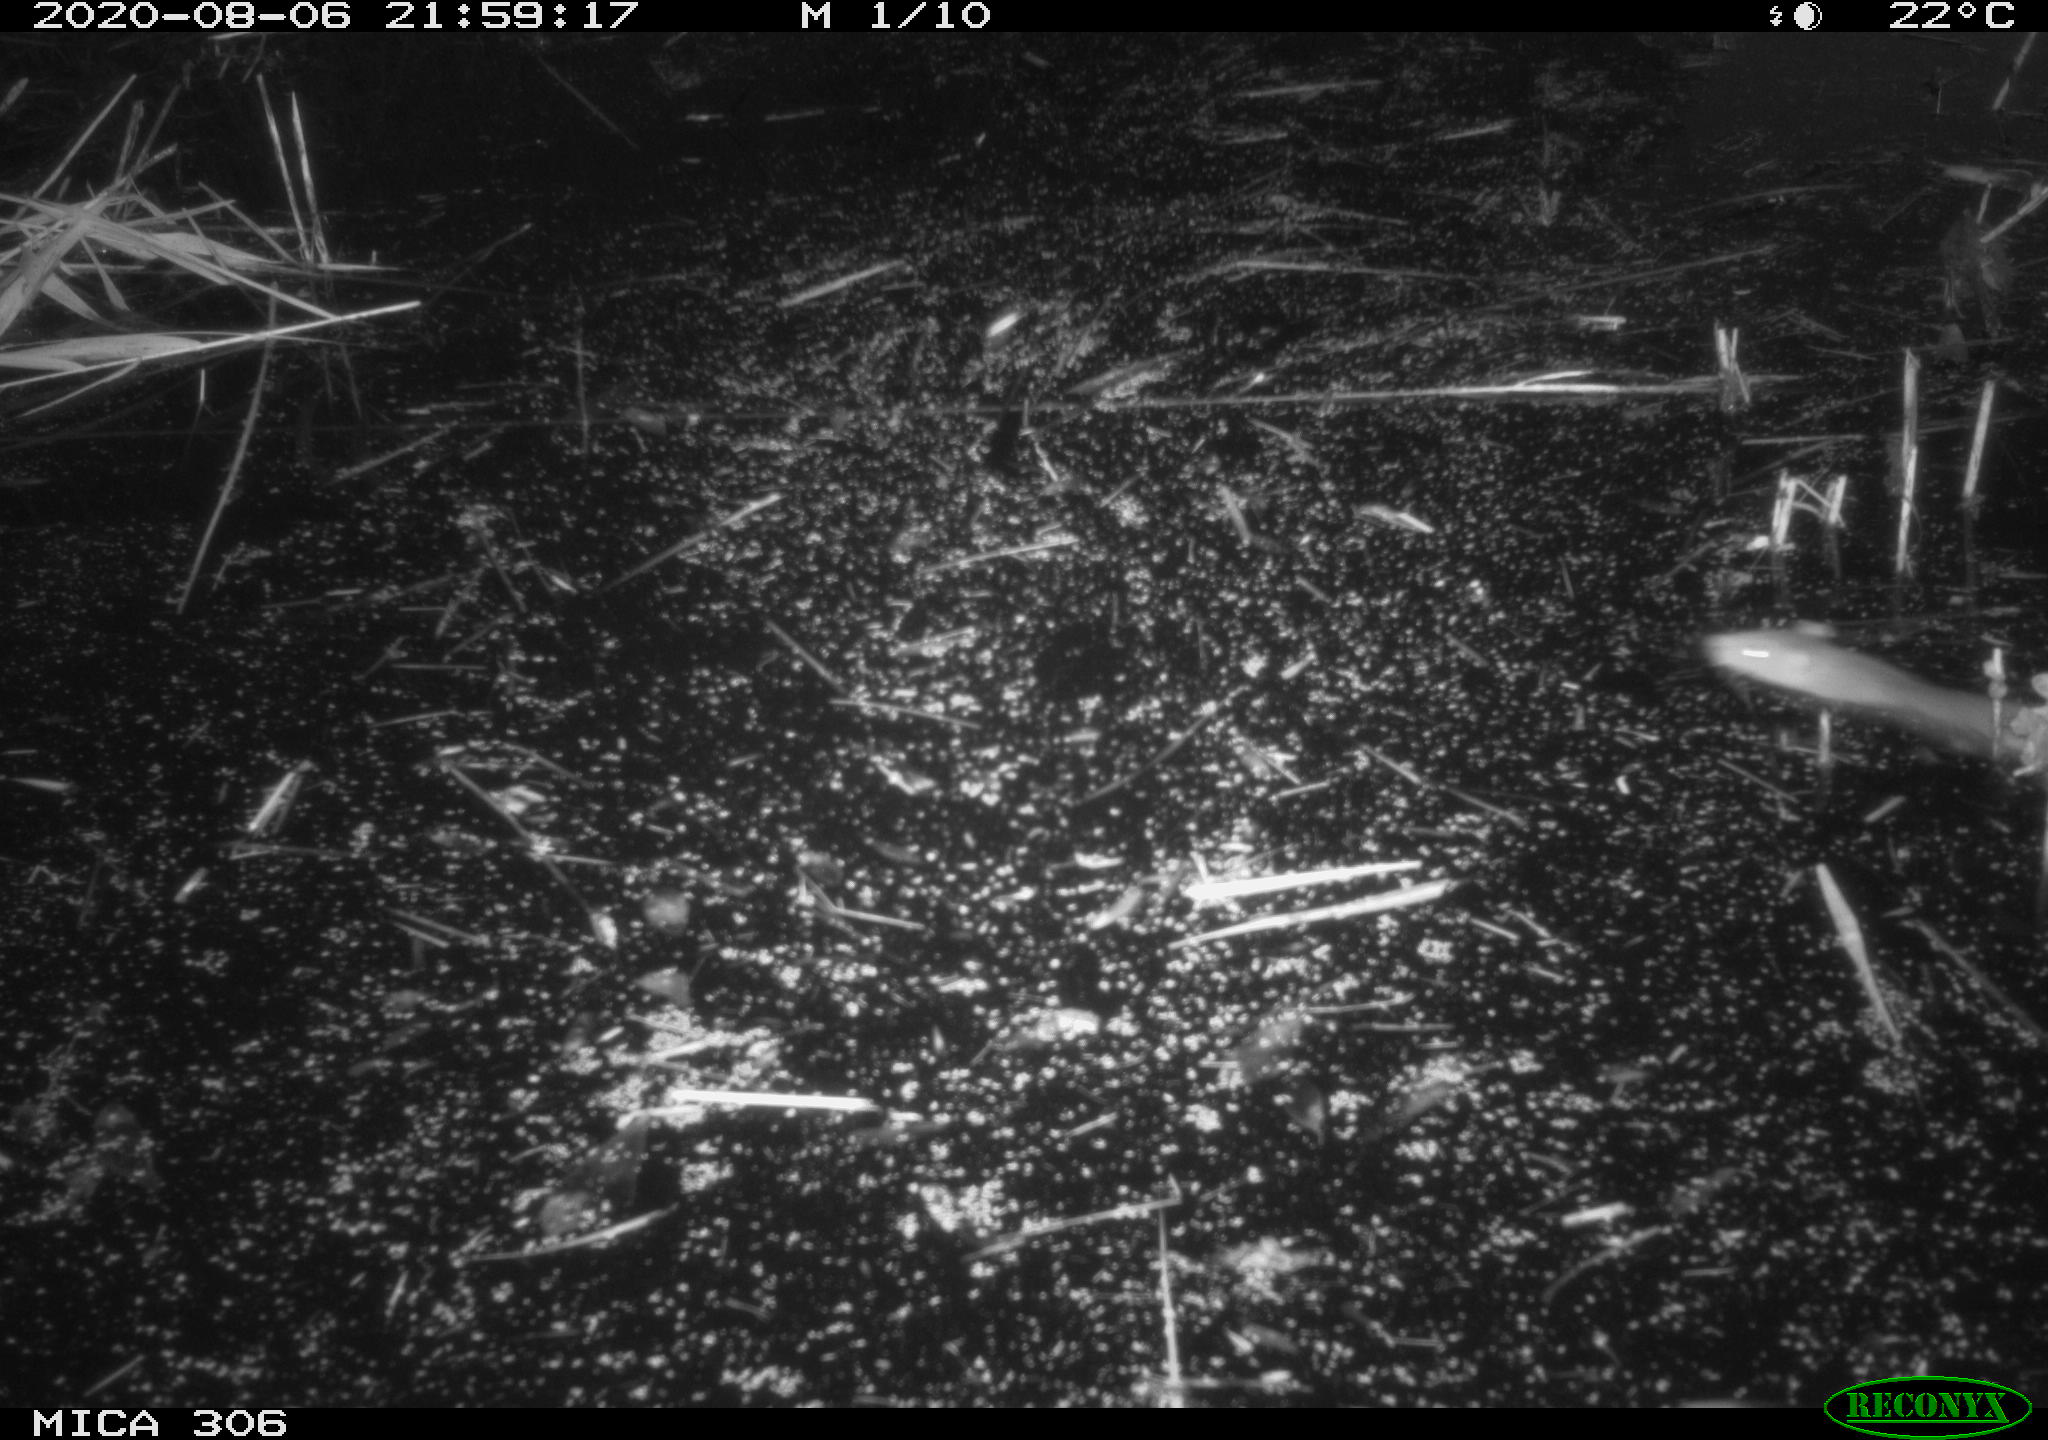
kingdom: Animalia
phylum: Chordata
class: Mammalia
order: Rodentia
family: Muridae
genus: Rattus
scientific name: Rattus norvegicus
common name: Brown rat
